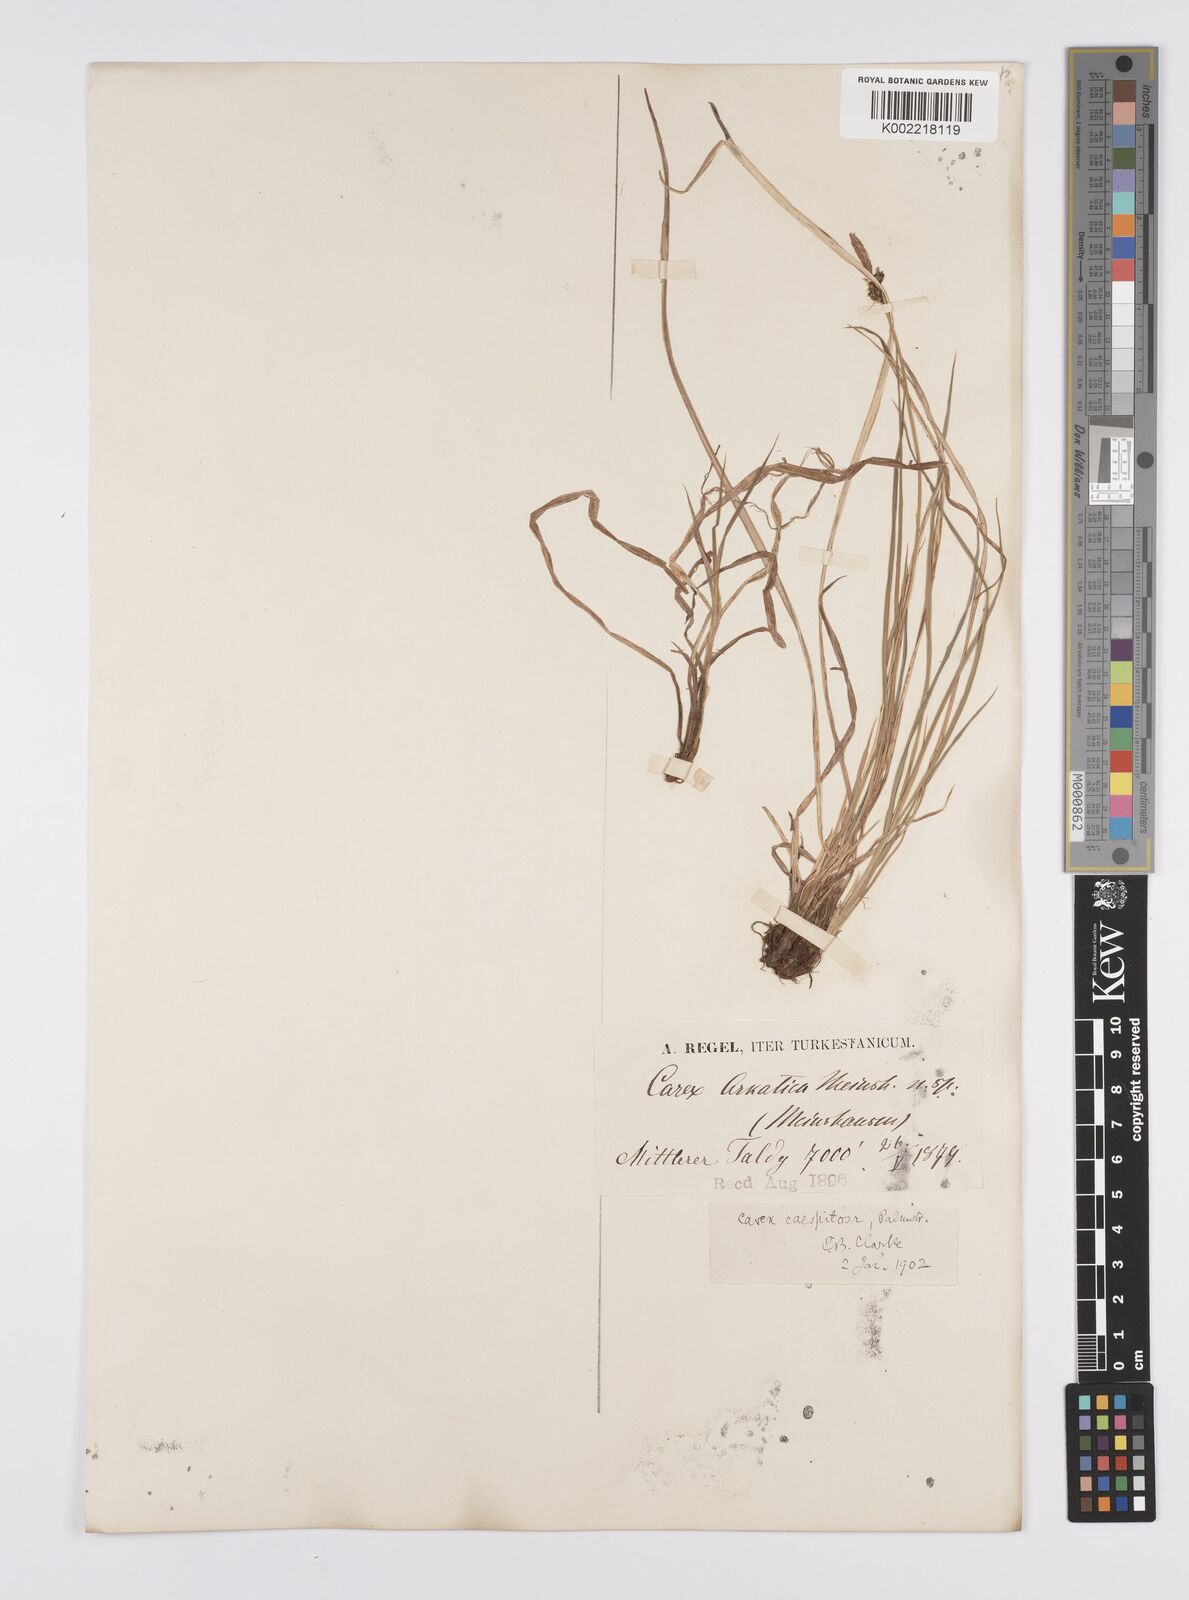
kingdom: Plantae
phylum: Tracheophyta
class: Liliopsida
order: Poales
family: Cyperaceae
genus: Carex
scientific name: Carex orbicularis
